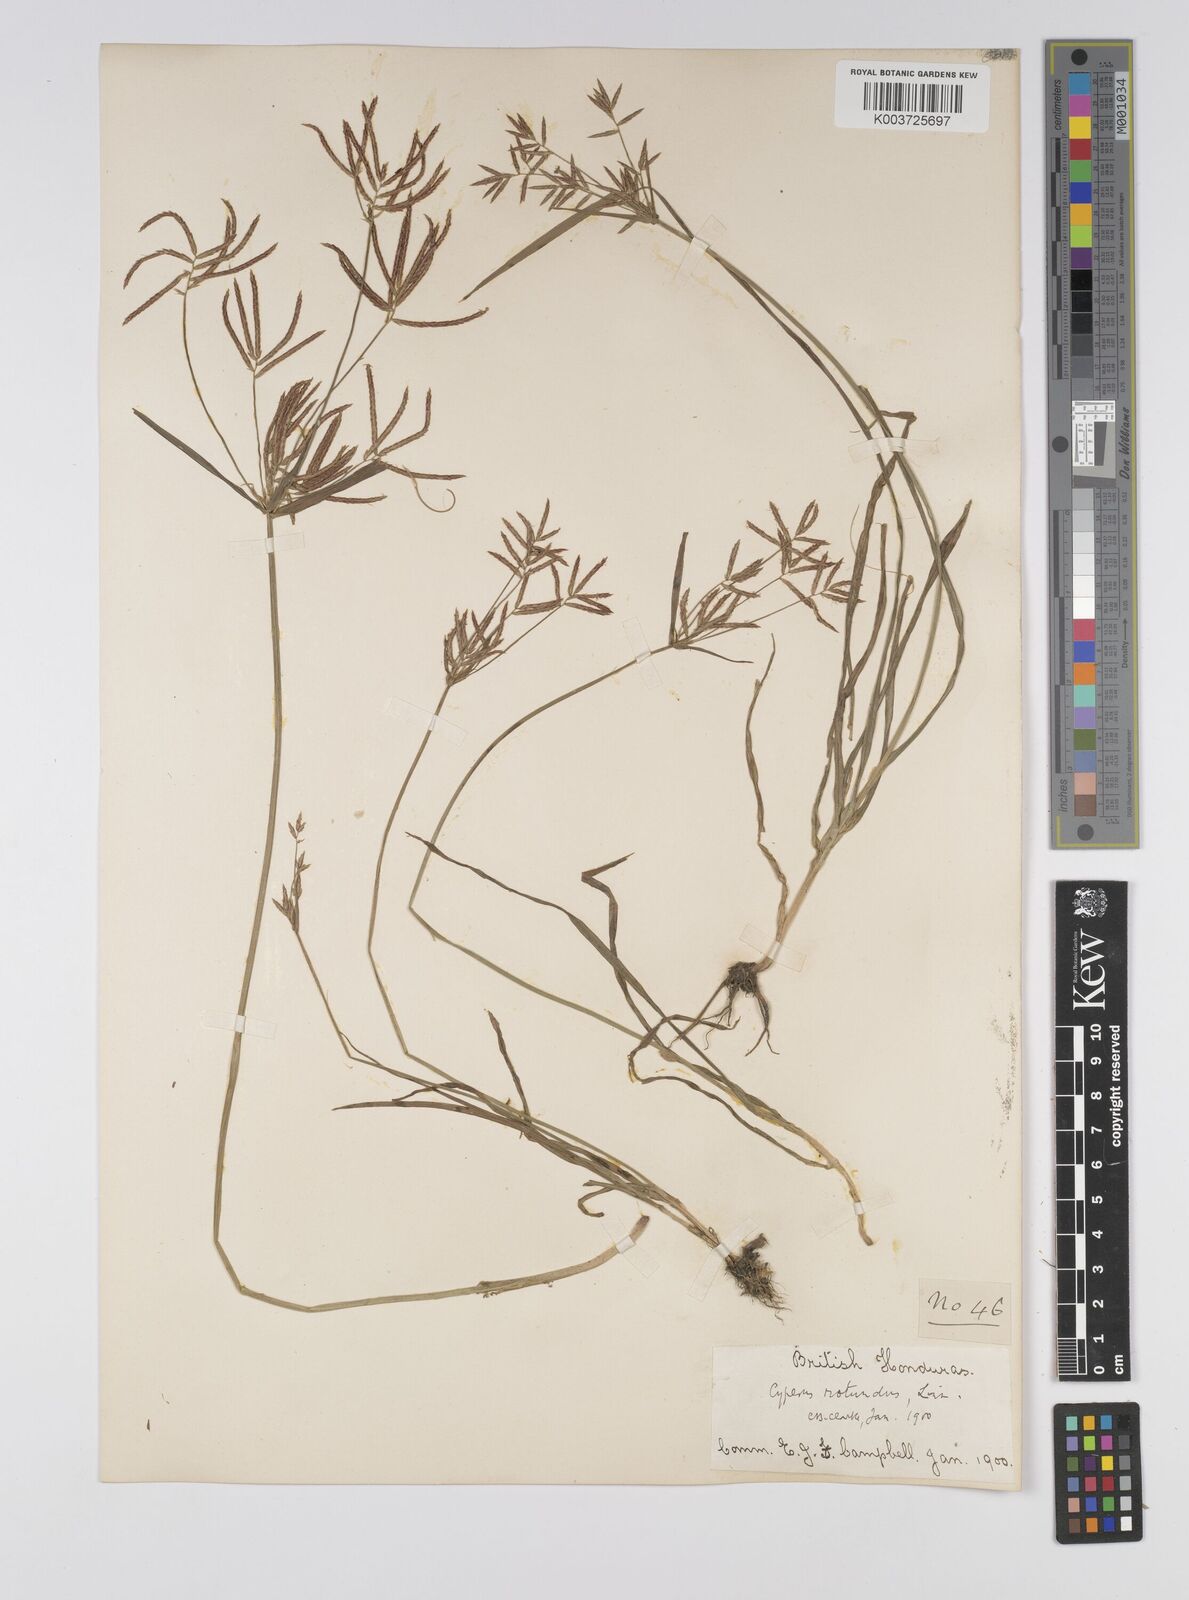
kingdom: Plantae
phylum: Tracheophyta
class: Liliopsida
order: Poales
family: Cyperaceae
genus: Cyperus
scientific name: Cyperus rotundus
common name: Nutgrass
